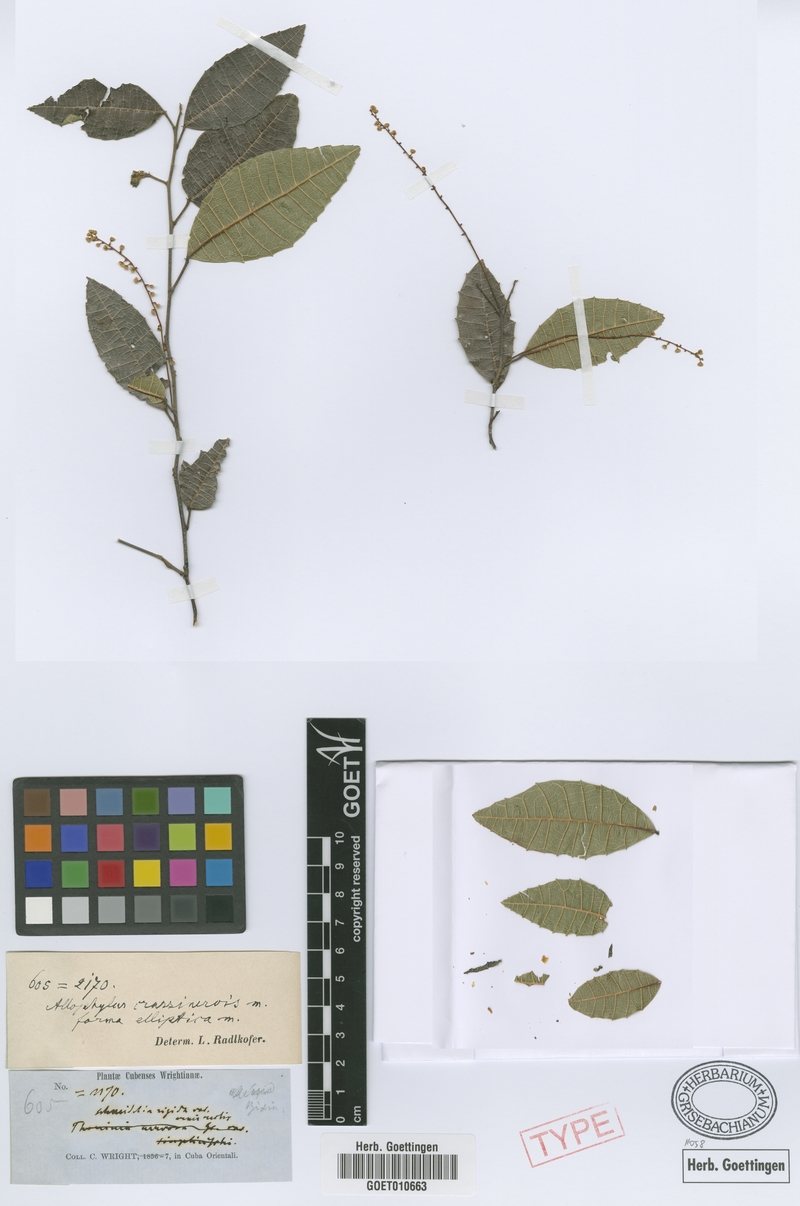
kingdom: Plantae
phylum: Tracheophyta
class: Magnoliopsida
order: Sapindales
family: Sapindaceae
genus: Allophylus
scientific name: Allophylus crassinervis
